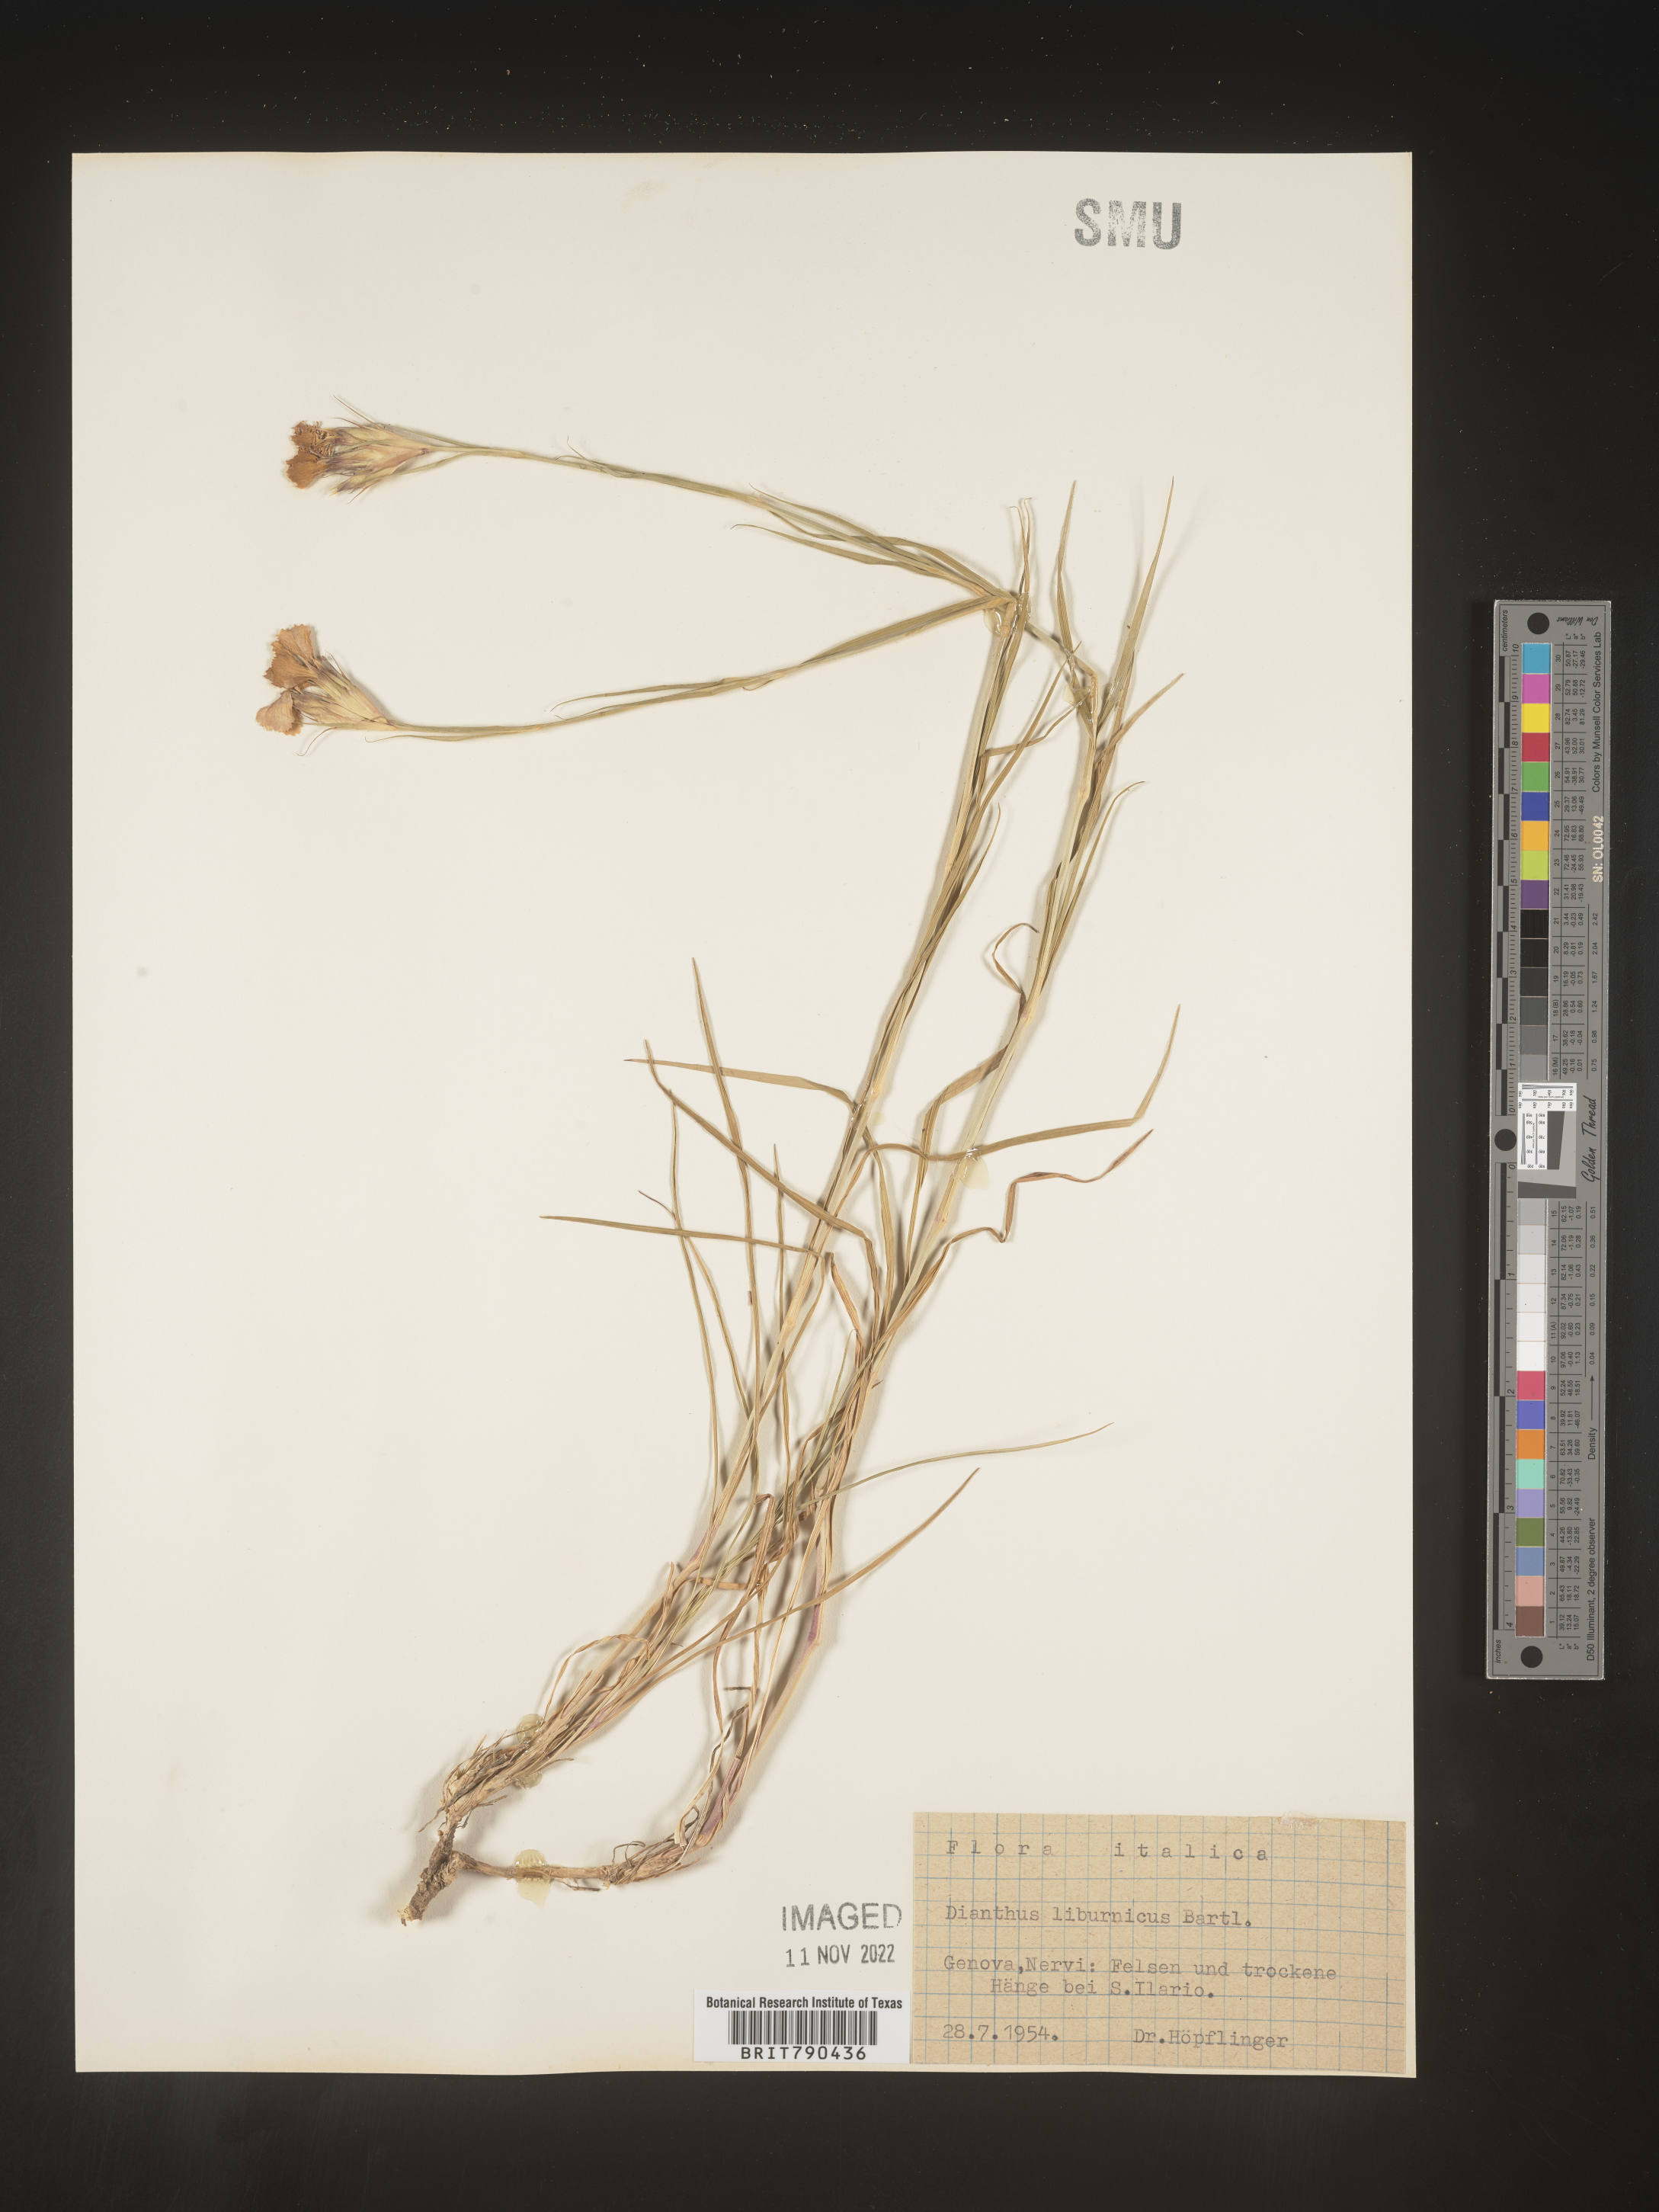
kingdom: Plantae
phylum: Tracheophyta
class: Magnoliopsida
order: Caryophyllales
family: Caryophyllaceae
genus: Dianthus
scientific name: Dianthus
